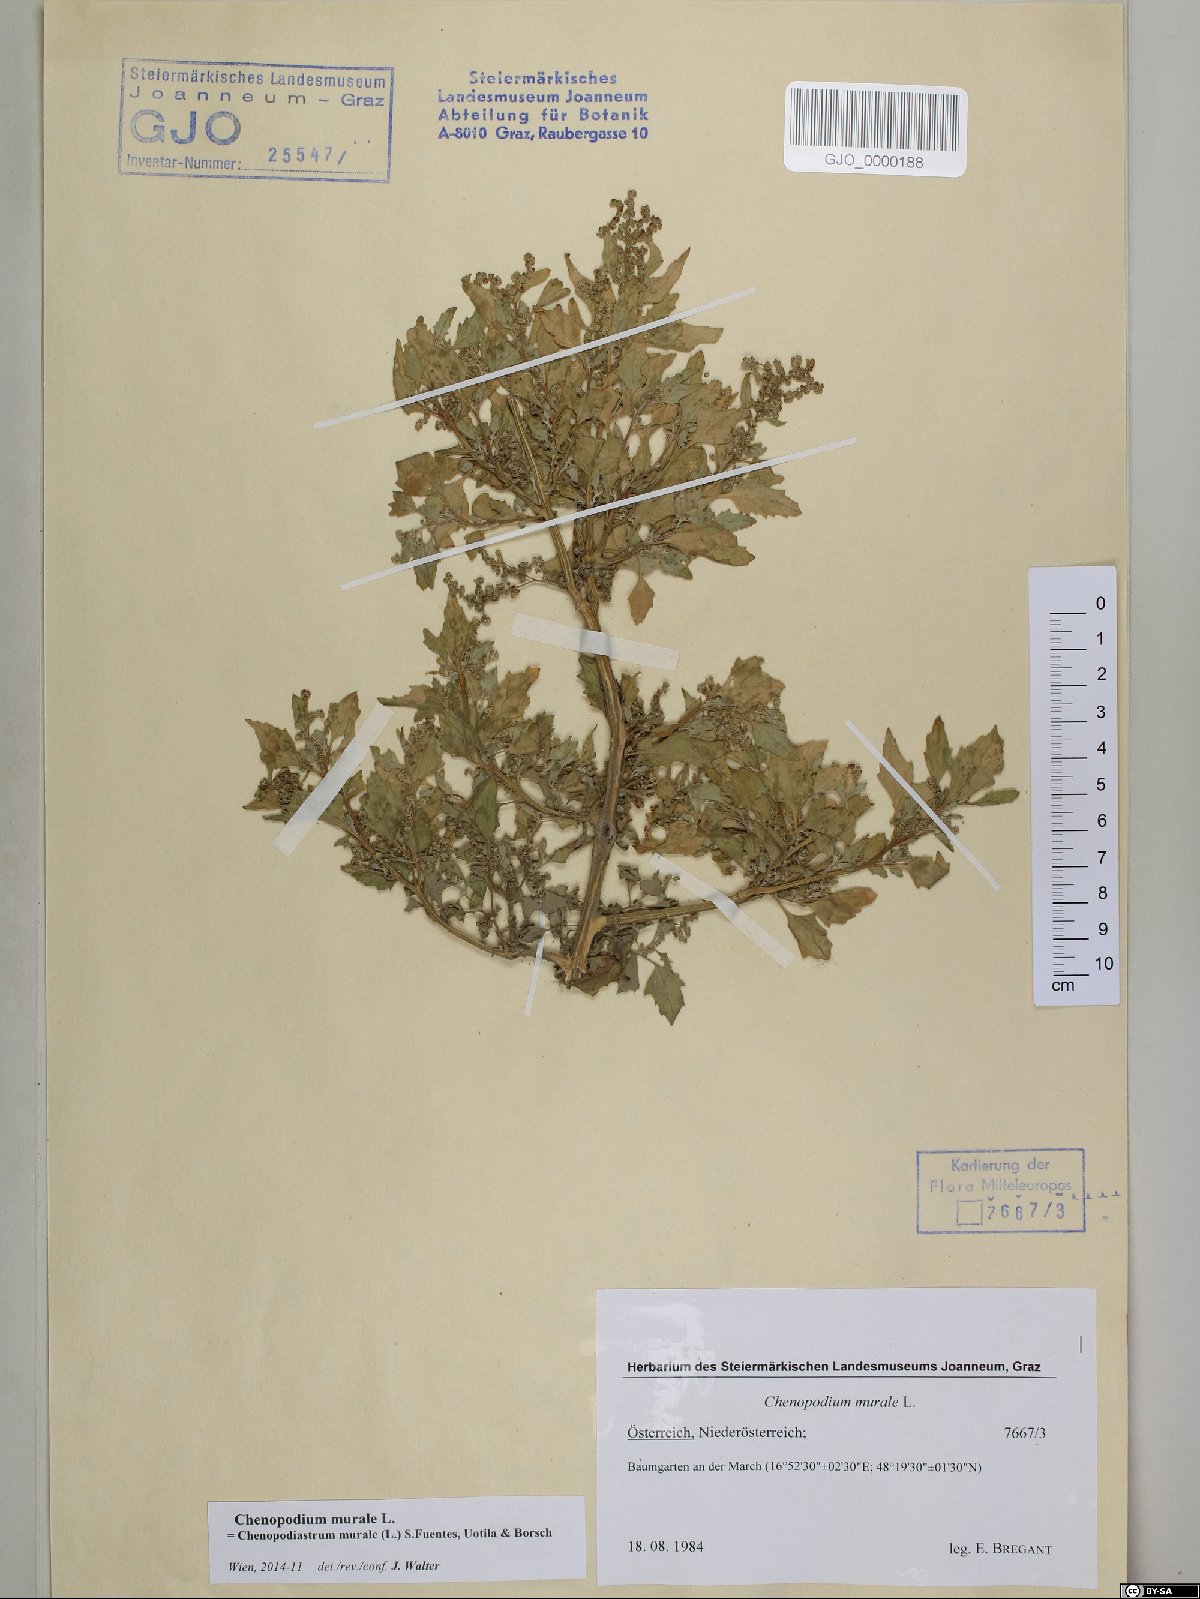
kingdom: Plantae
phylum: Tracheophyta
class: Magnoliopsida
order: Caryophyllales
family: Amaranthaceae
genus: Chenopodiastrum
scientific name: Chenopodiastrum murale
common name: Sowbane
